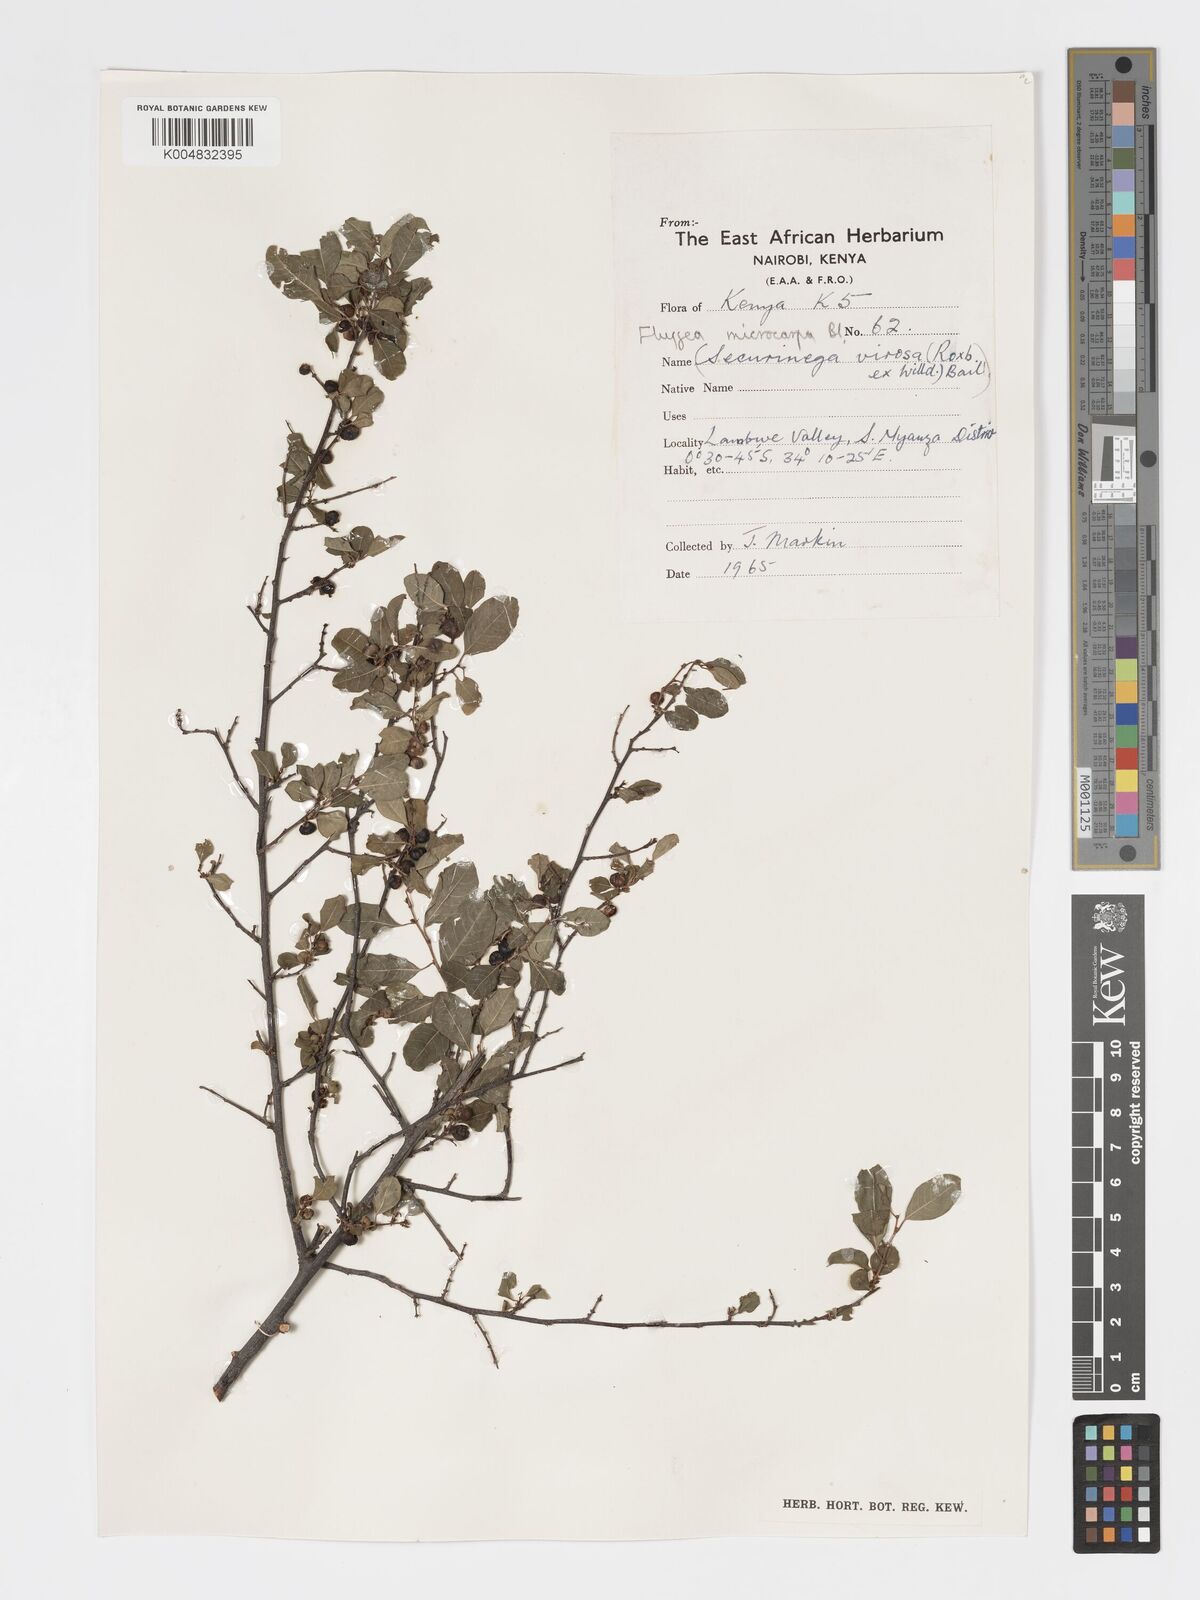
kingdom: Plantae
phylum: Tracheophyta
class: Magnoliopsida
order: Malpighiales
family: Phyllanthaceae
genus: Flueggea
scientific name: Flueggea virosa
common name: Common bushweed
